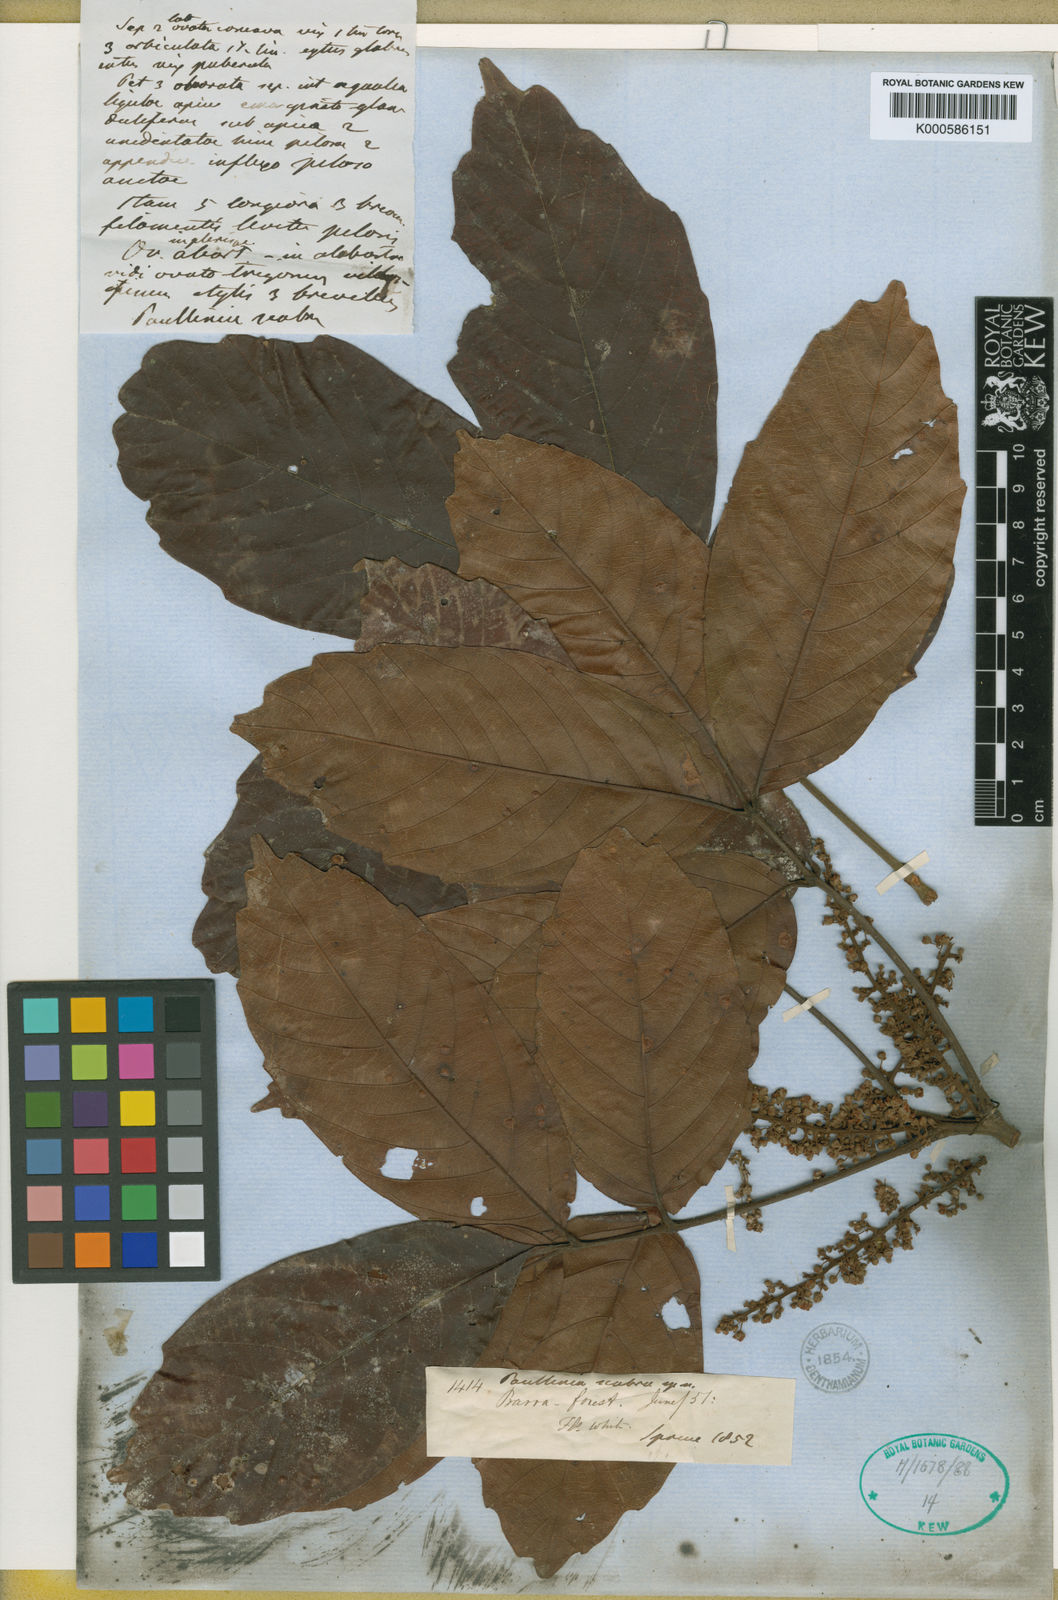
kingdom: Plantae
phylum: Tracheophyta
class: Magnoliopsida
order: Sapindales
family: Sapindaceae
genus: Paullinia
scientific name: Paullinia scabra
